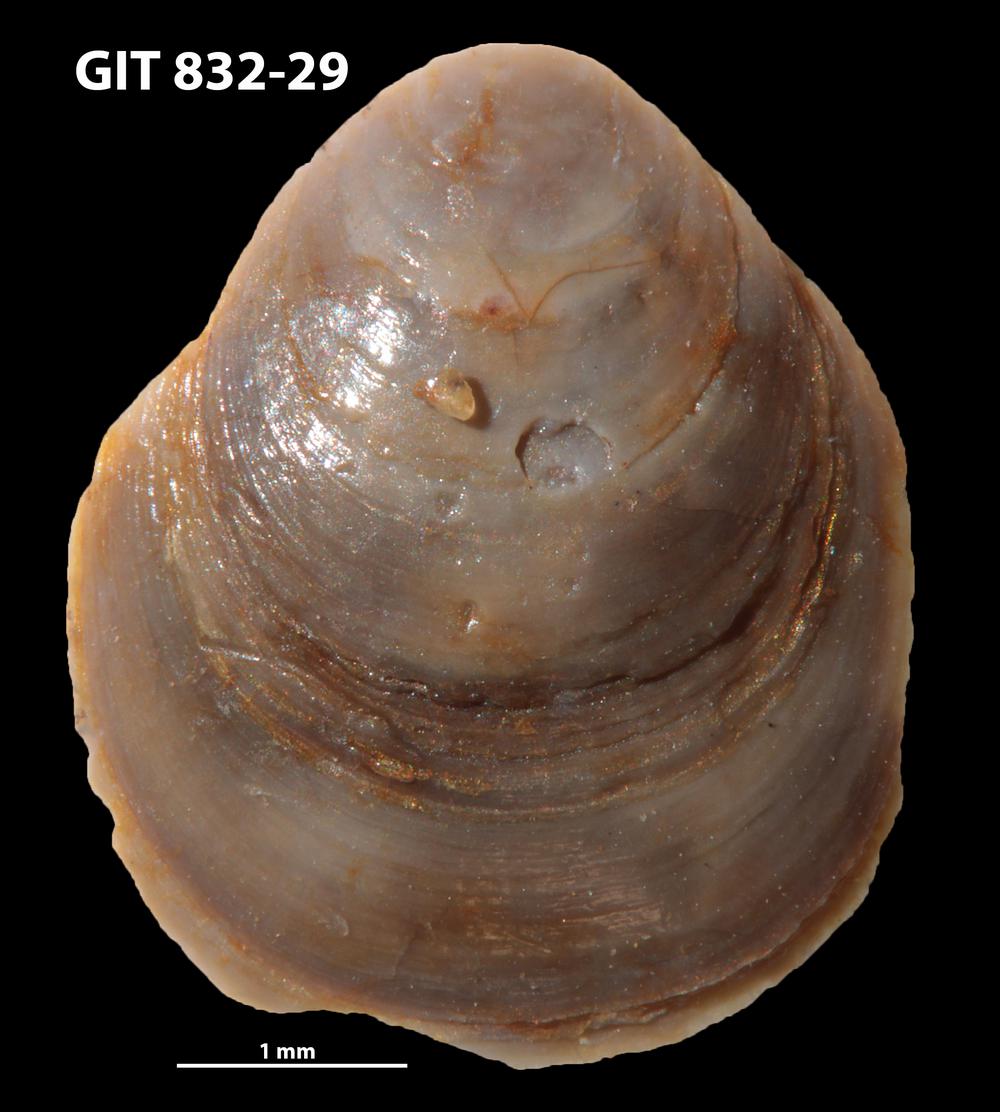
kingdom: Animalia
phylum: Brachiopoda
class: Lingulata
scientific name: Lingulata
